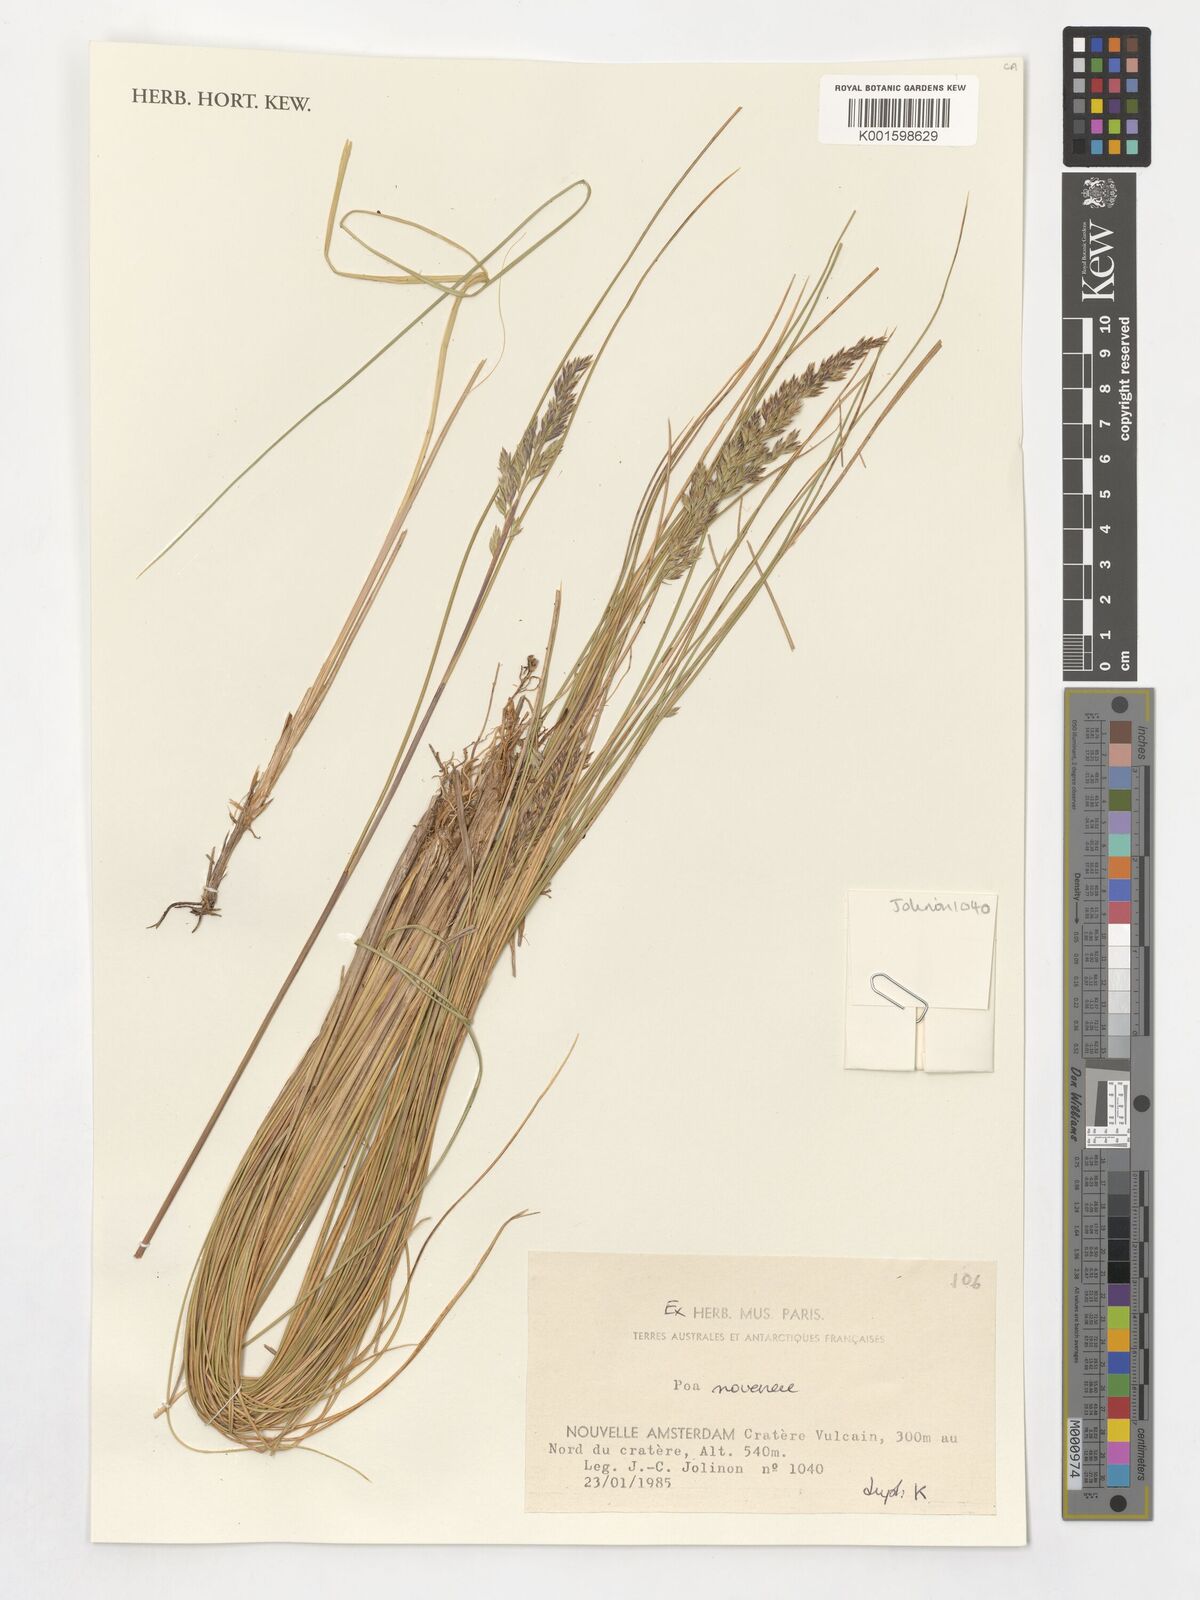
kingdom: Plantae
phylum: Tracheophyta
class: Liliopsida
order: Poales
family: Poaceae
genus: Poa
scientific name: Poa novarae
